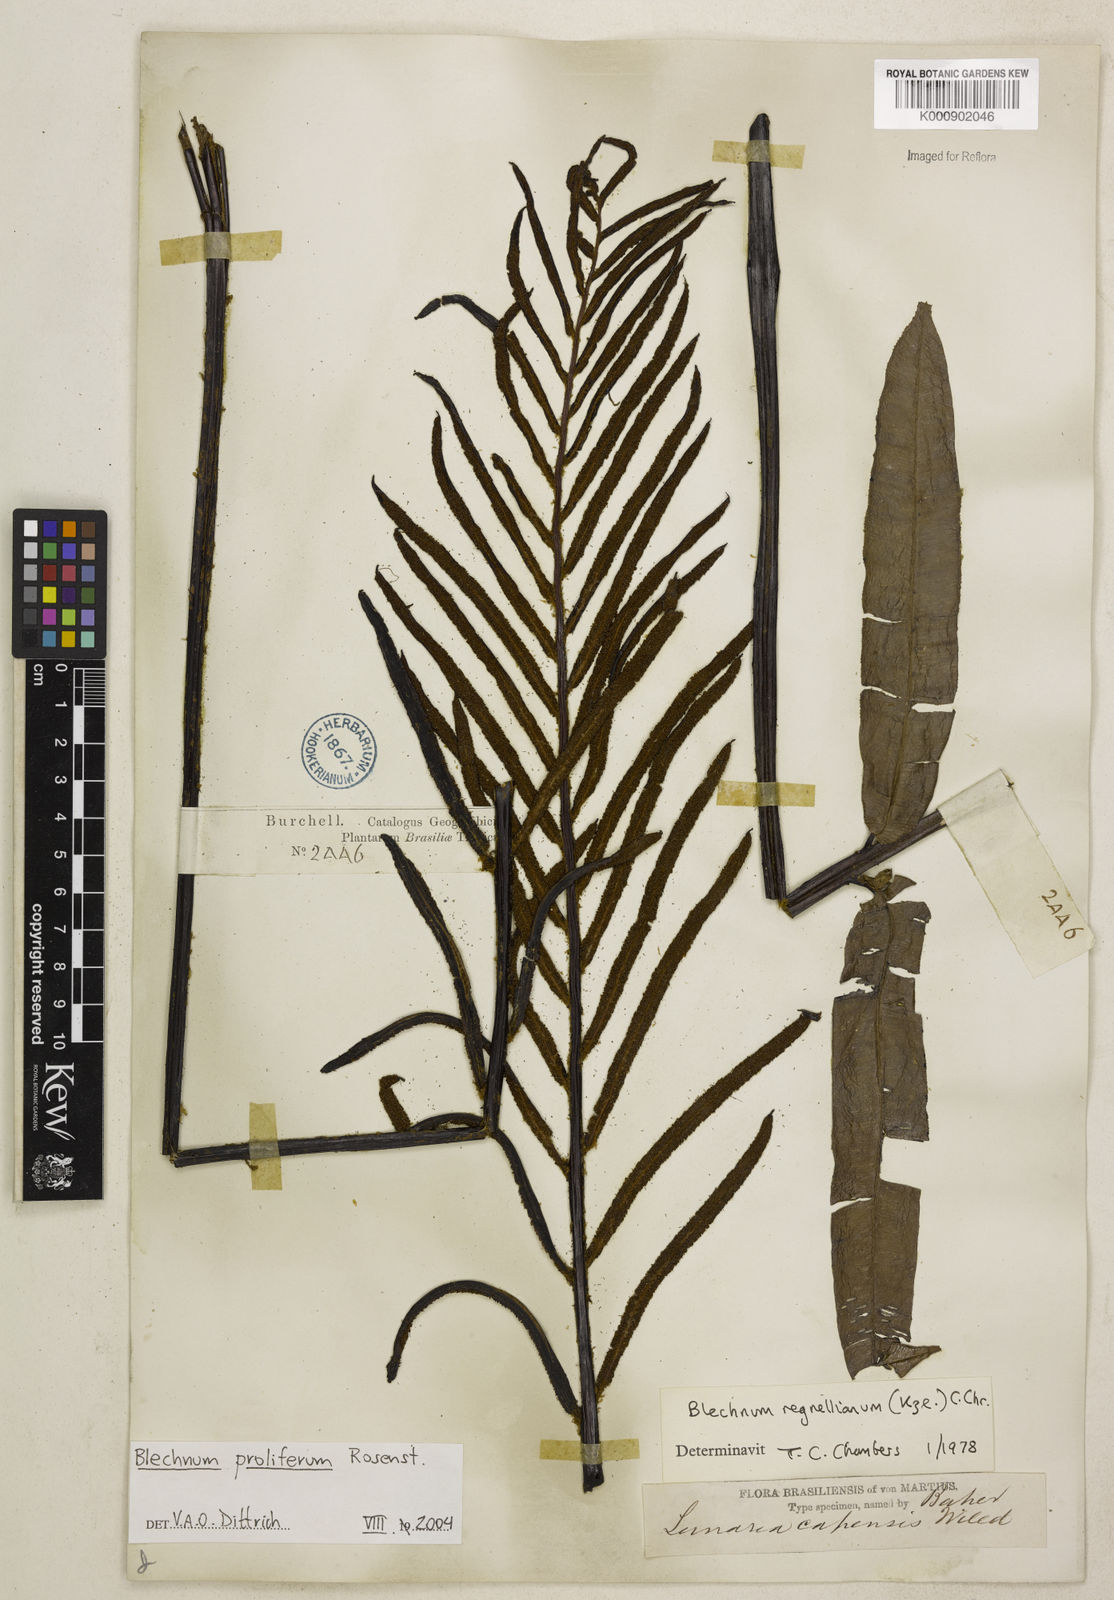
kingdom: Plantae
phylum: Tracheophyta
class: Polypodiopsida
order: Polypodiales
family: Blechnaceae
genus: Parablechnum
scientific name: Parablechnum proliferum
